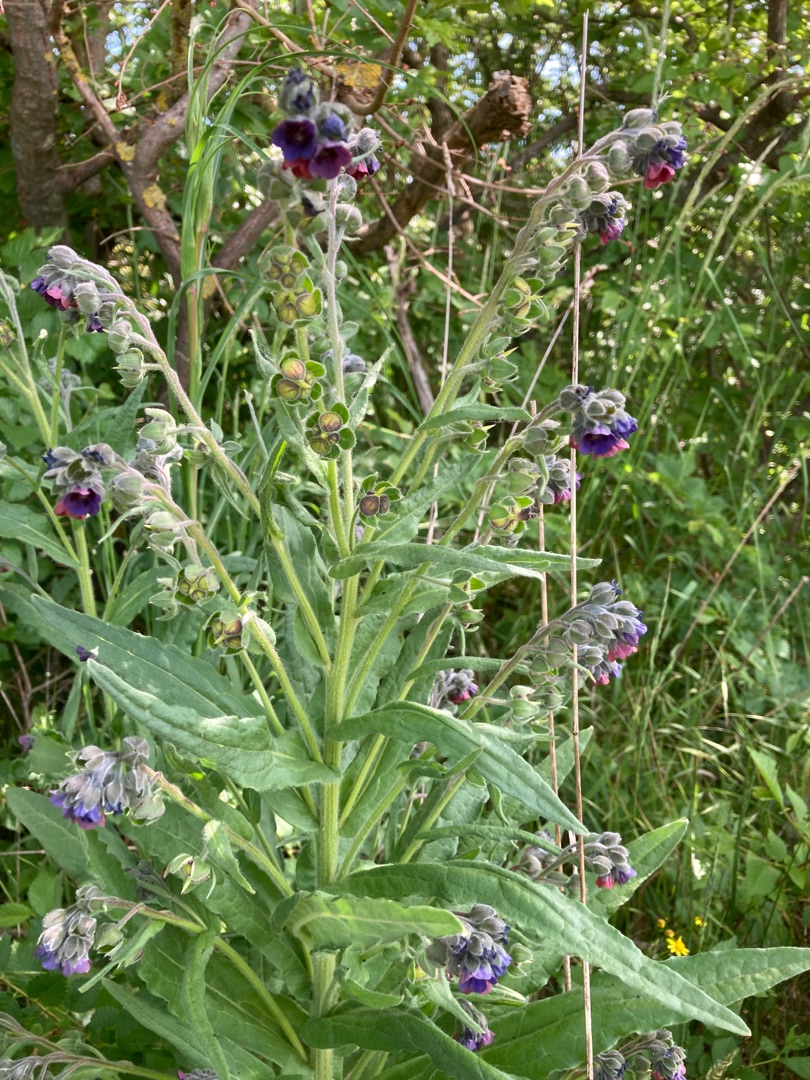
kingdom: Plantae
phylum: Tracheophyta
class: Magnoliopsida
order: Boraginales
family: Boraginaceae
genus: Cynoglossum
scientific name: Cynoglossum officinale
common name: Hundetunge
